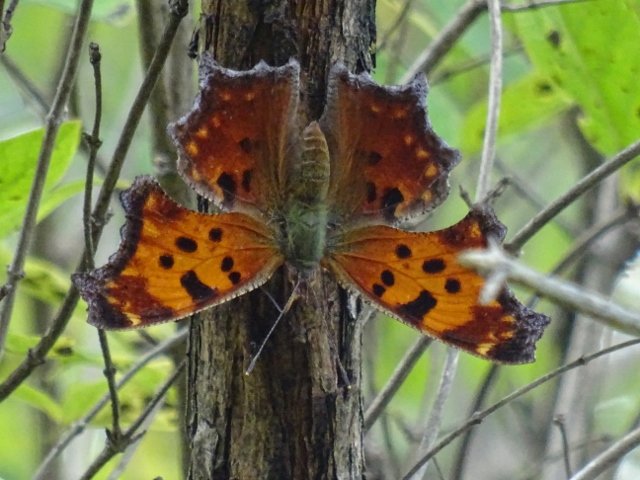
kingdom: Animalia
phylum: Arthropoda
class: Insecta
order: Lepidoptera
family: Nymphalidae
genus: Polygonia
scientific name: Polygonia comma
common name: Eastern Comma
